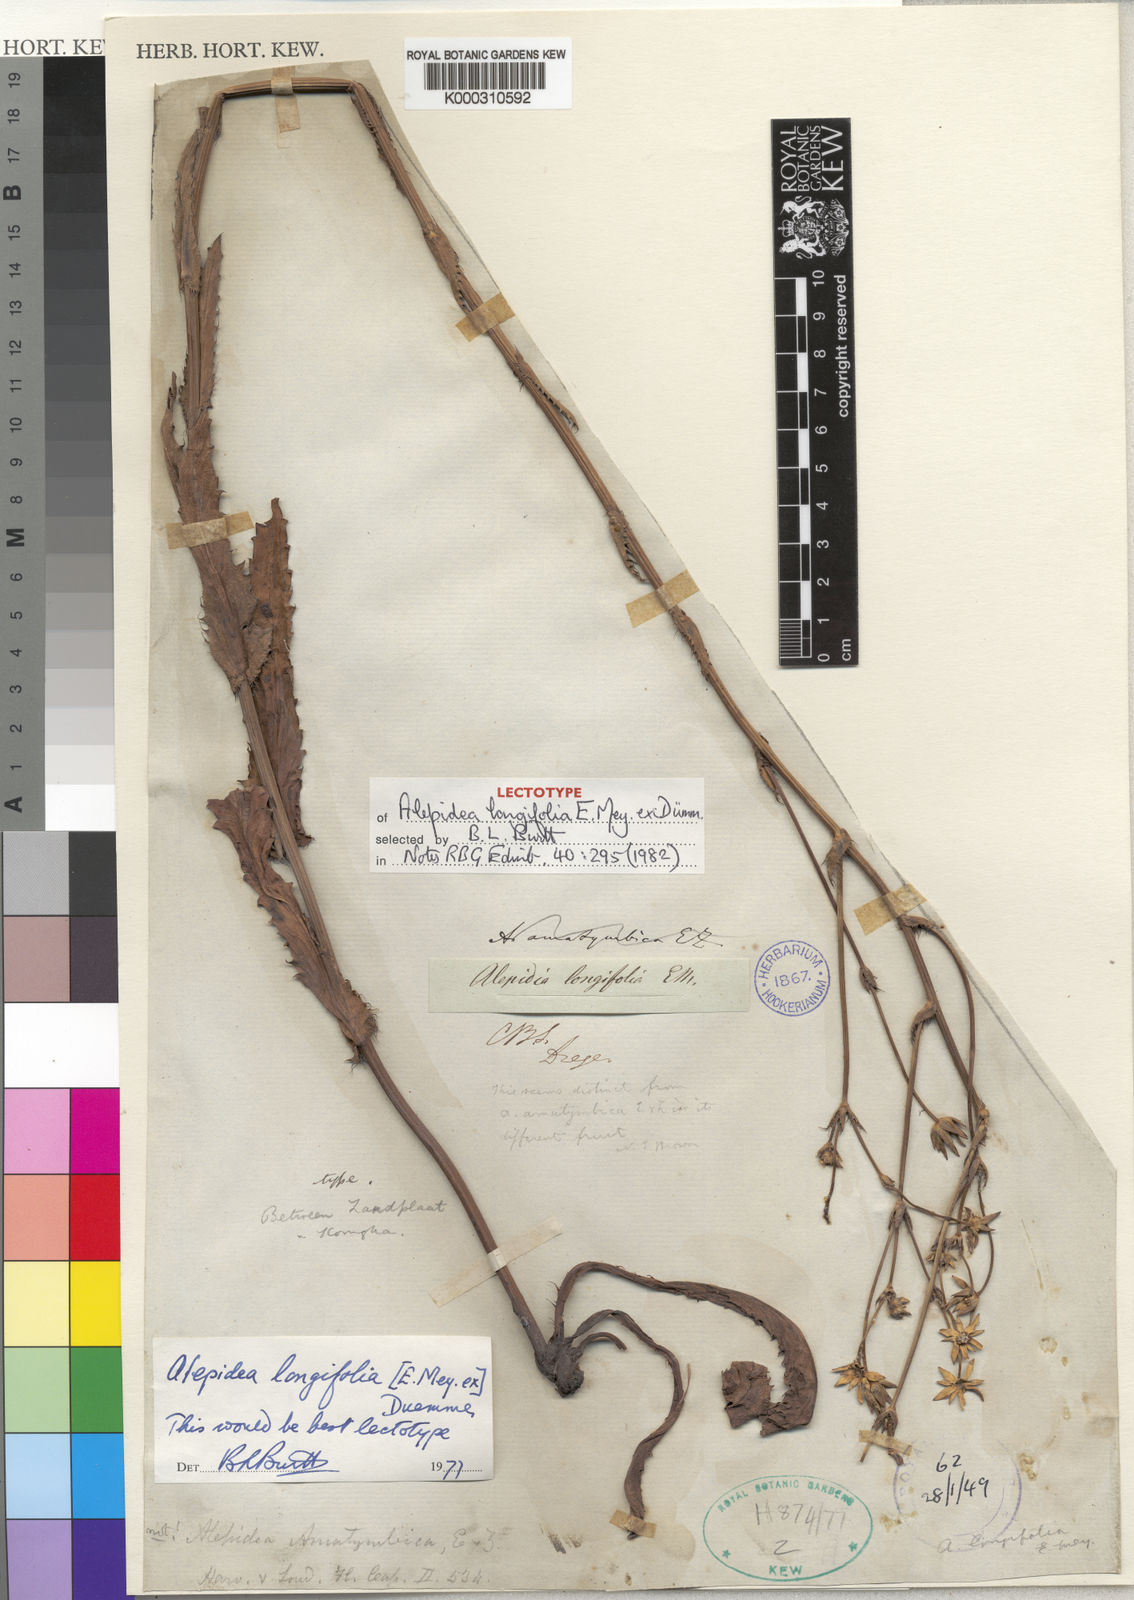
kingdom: Plantae
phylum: Tracheophyta
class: Magnoliopsida
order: Apiales
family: Apiaceae
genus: Alepidea
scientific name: Alepidea
